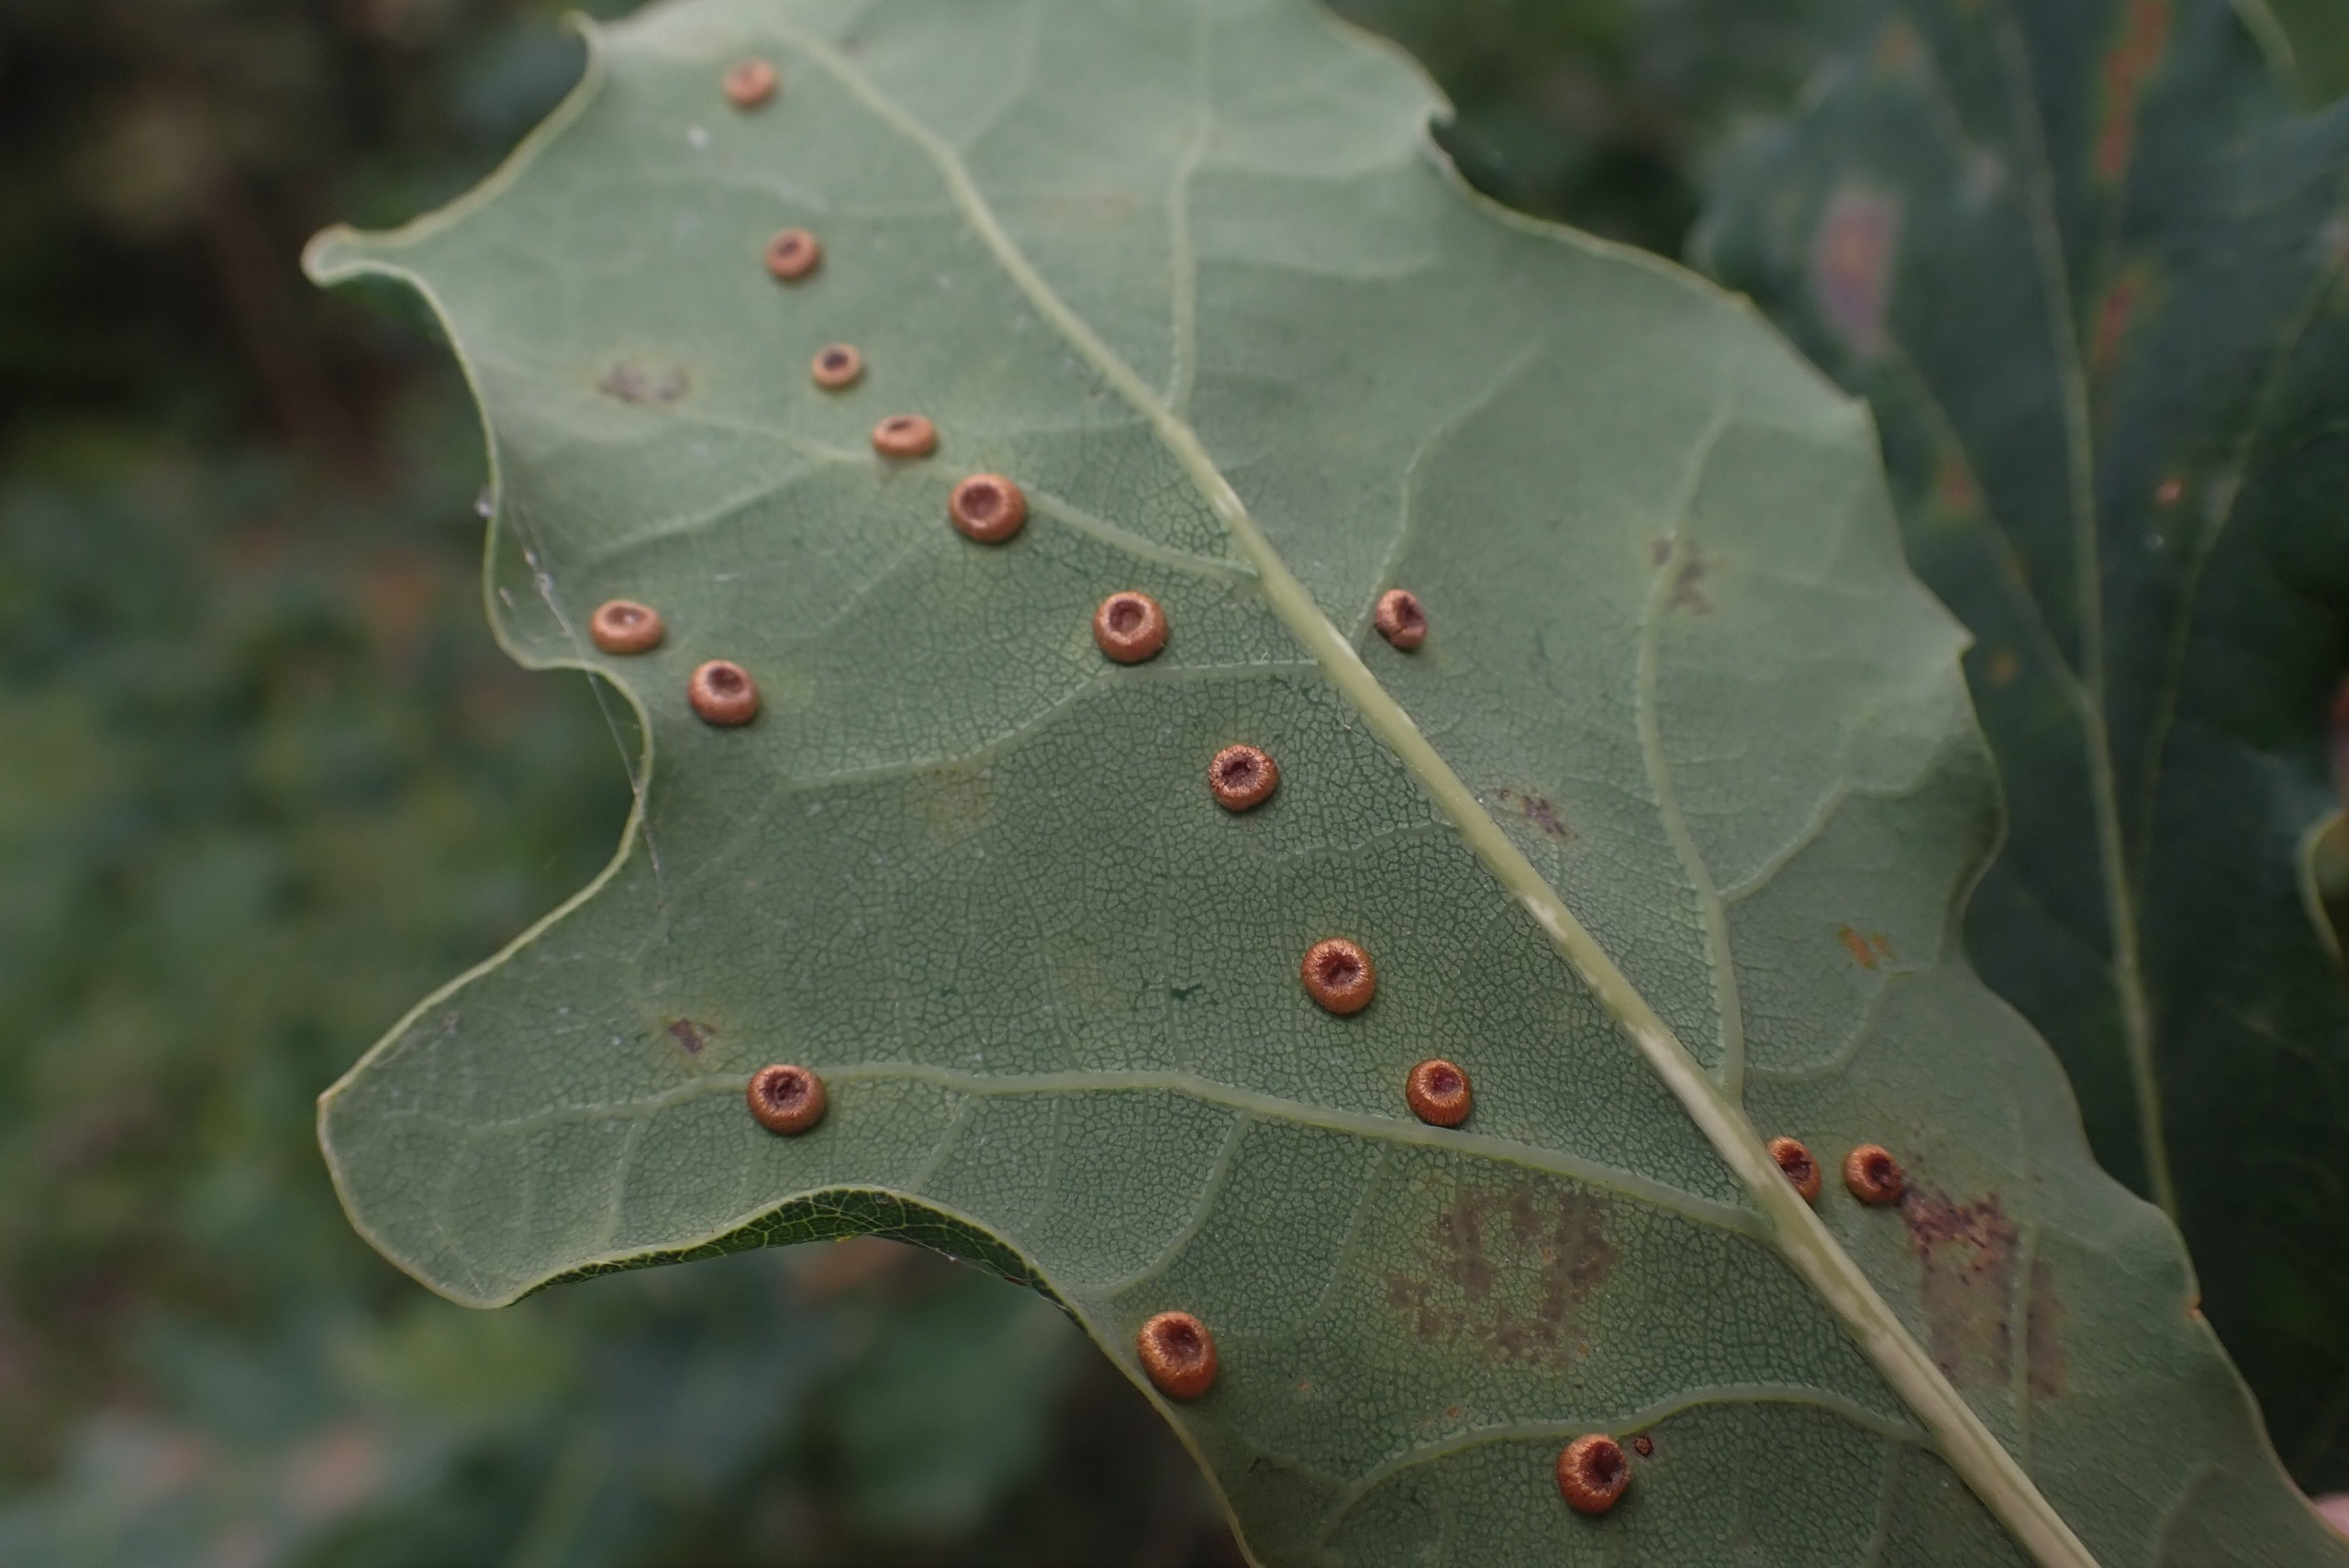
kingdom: Animalia
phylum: Arthropoda
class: Insecta
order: Hymenoptera
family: Cynipidae
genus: Neuroterus
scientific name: Neuroterus numismalis
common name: Knapgalhveps
